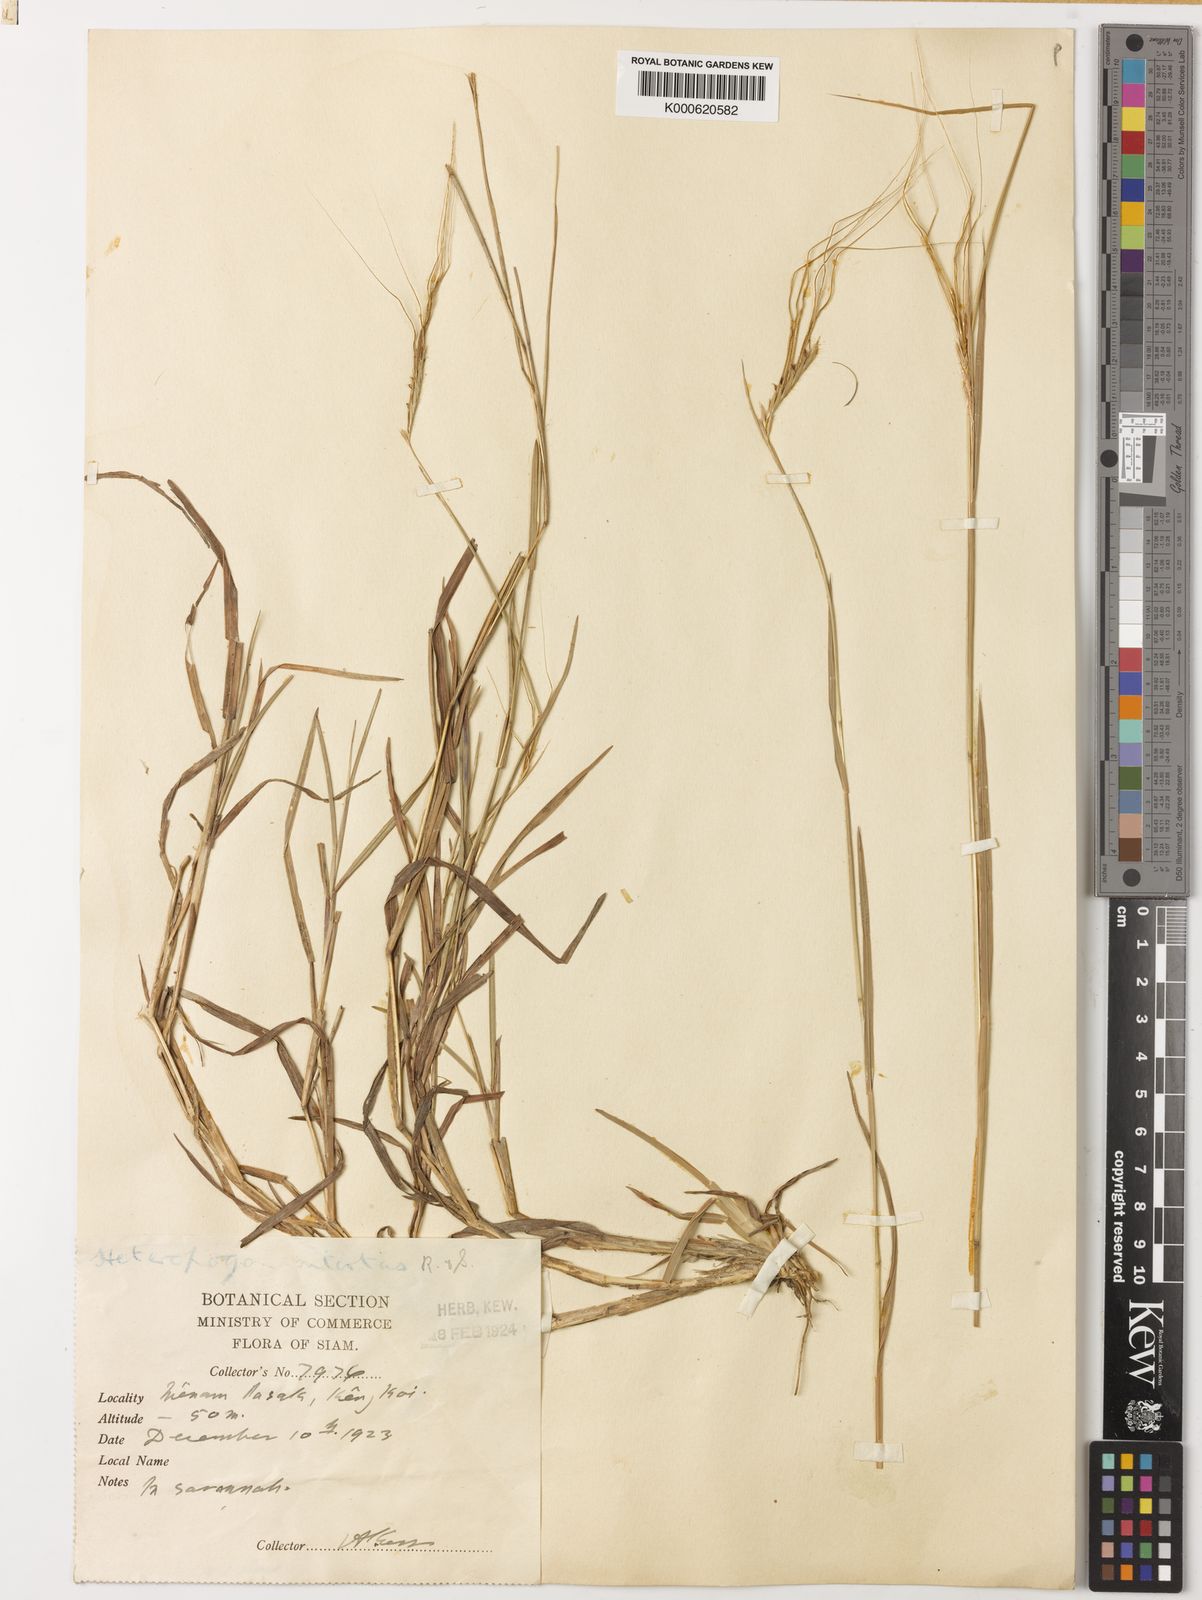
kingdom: Plantae
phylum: Tracheophyta
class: Liliopsida
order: Poales
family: Poaceae
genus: Heteropogon
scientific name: Heteropogon contortus
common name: Tanglehead
